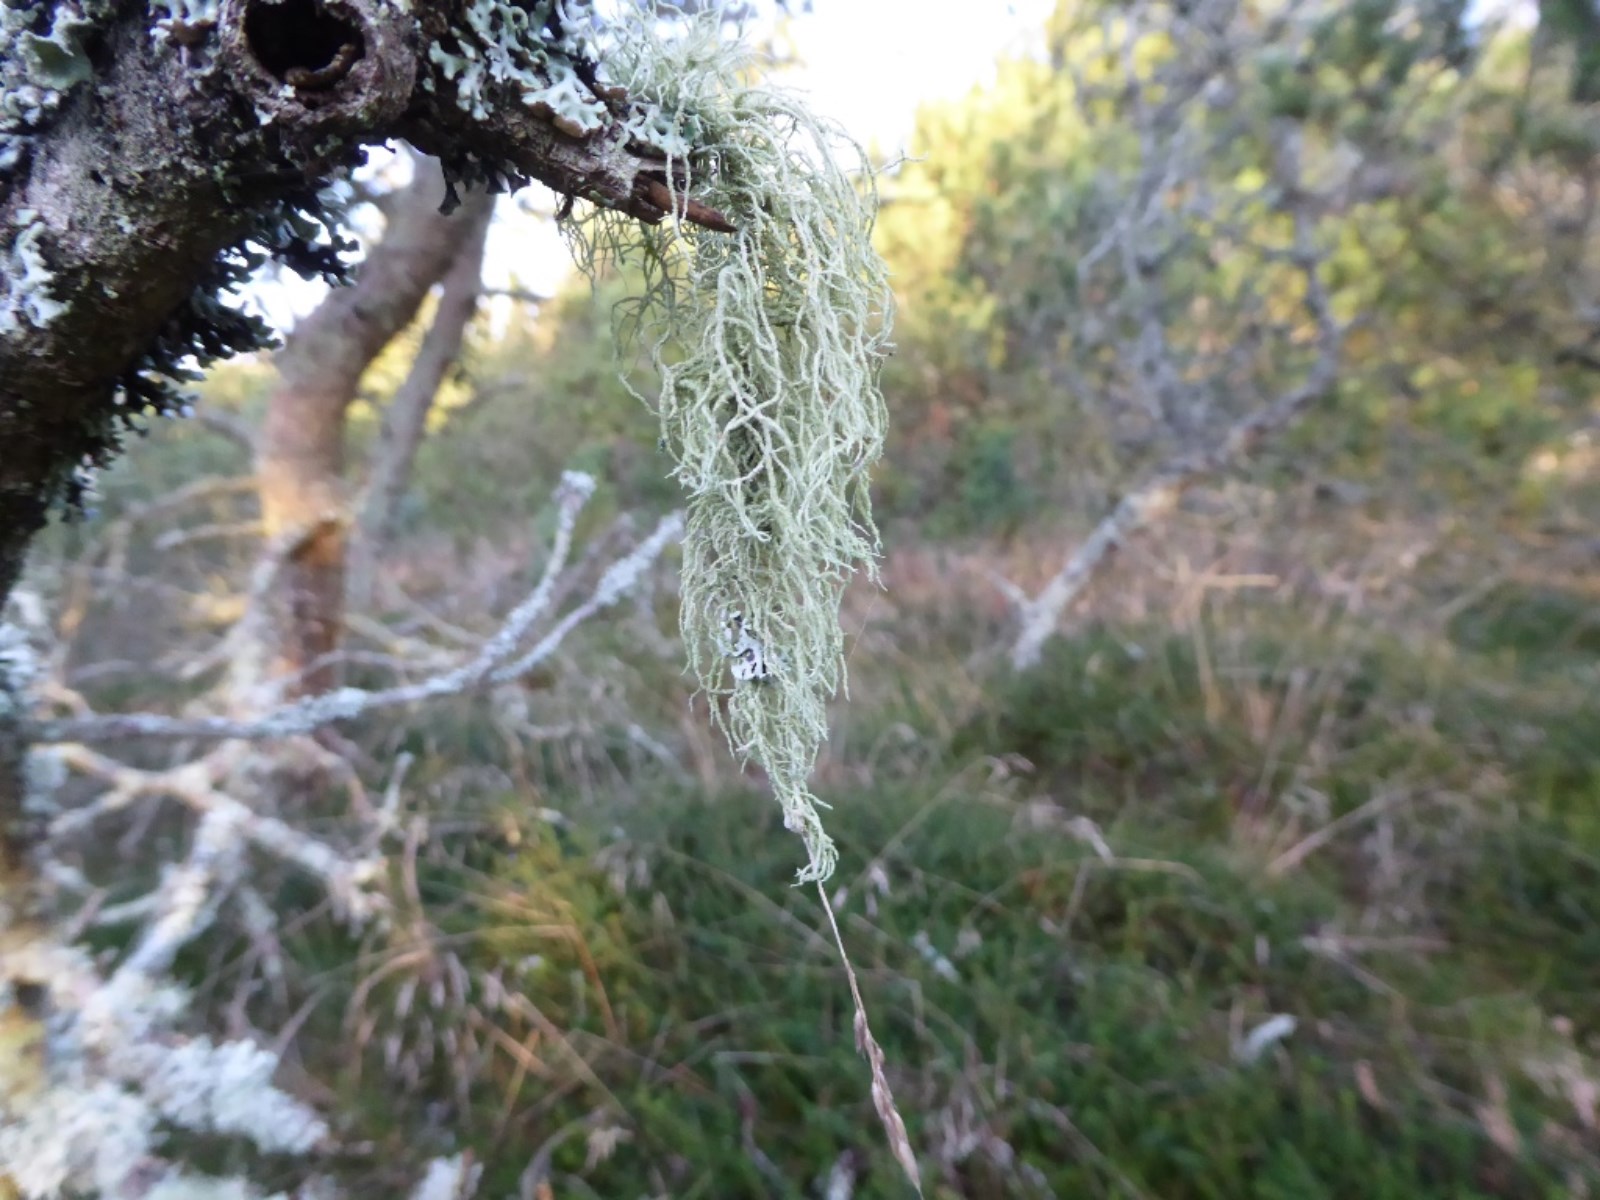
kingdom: Fungi
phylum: Ascomycota
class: Lecanoromycetes
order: Lecanorales
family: Parmeliaceae
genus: Usnea
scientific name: Usnea dasypoga
